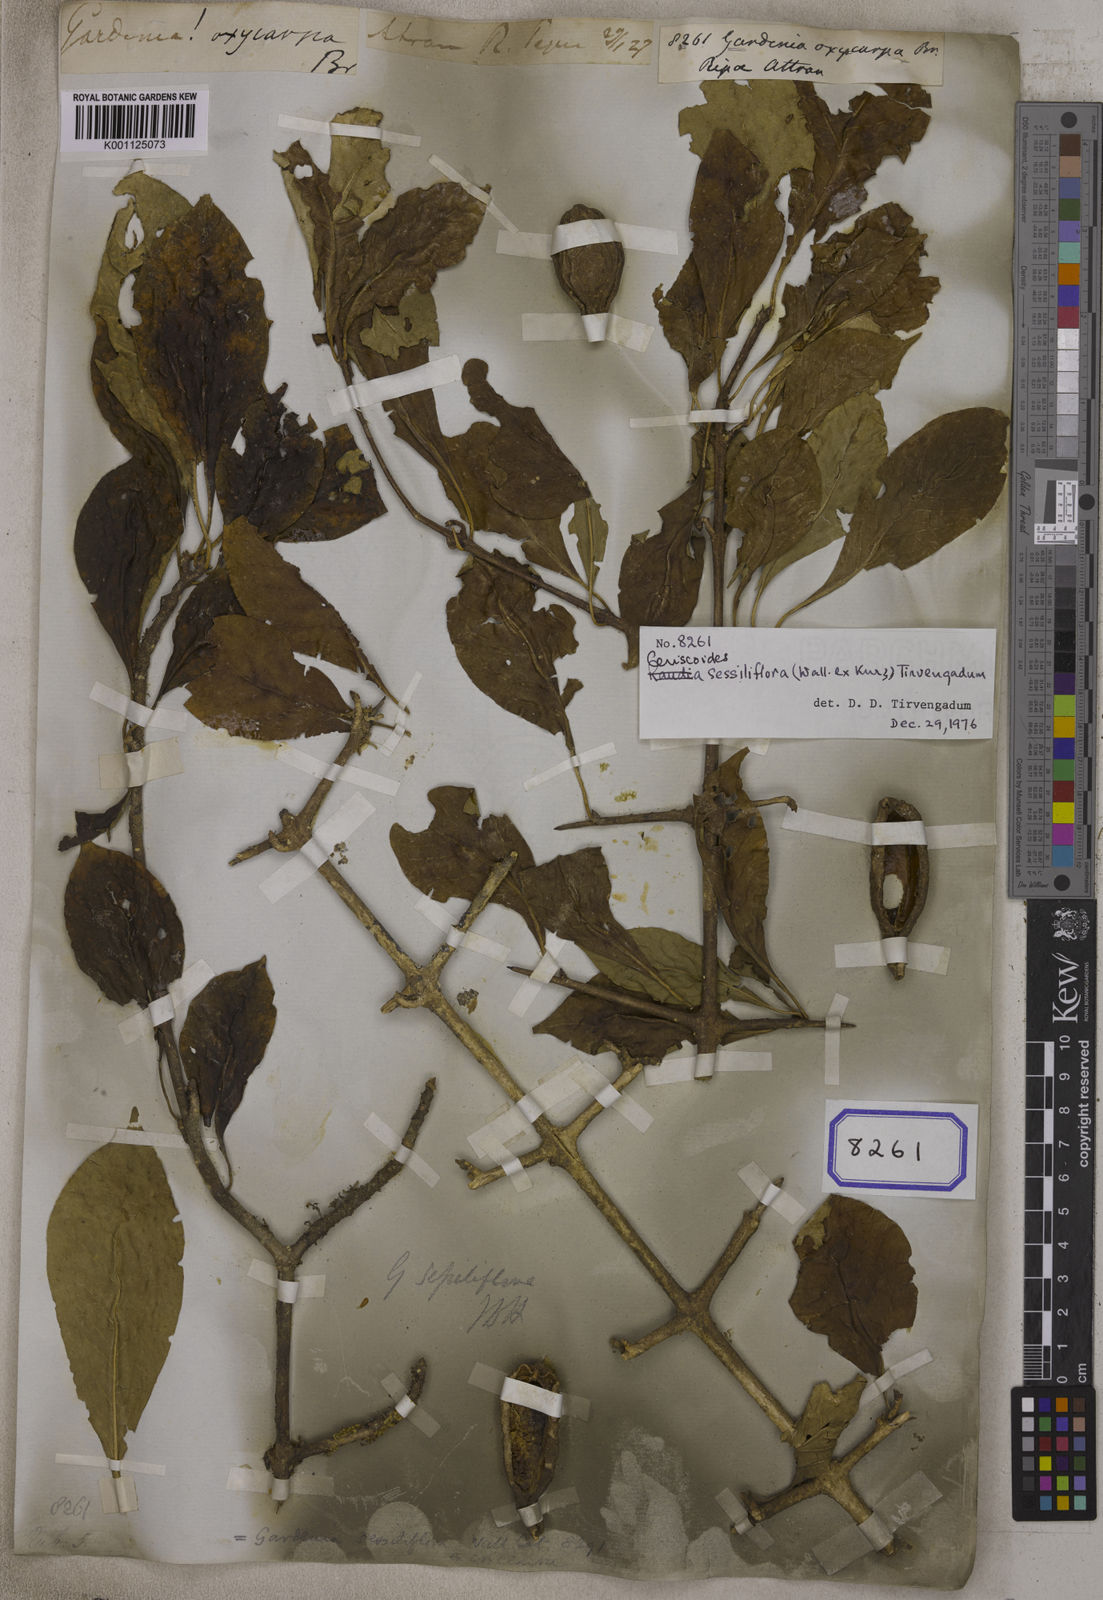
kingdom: Plantae
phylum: Tracheophyta
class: Magnoliopsida
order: Gentianales
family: Rubiaceae
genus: Gardenia
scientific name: Gardenia
